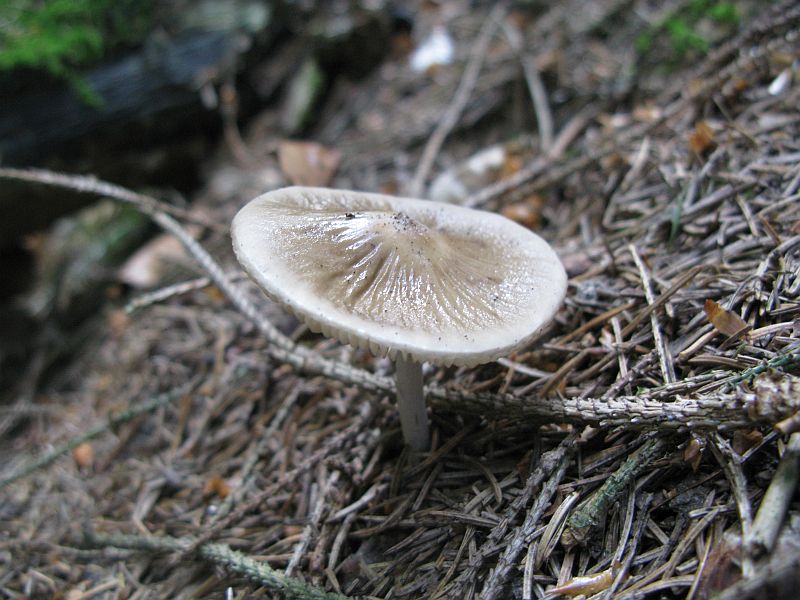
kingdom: Fungi
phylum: Basidiomycota
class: Agaricomycetes
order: Agaricales
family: Physalacriaceae
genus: Hymenopellis
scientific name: Hymenopellis radicata
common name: almindelig pælerodshat
